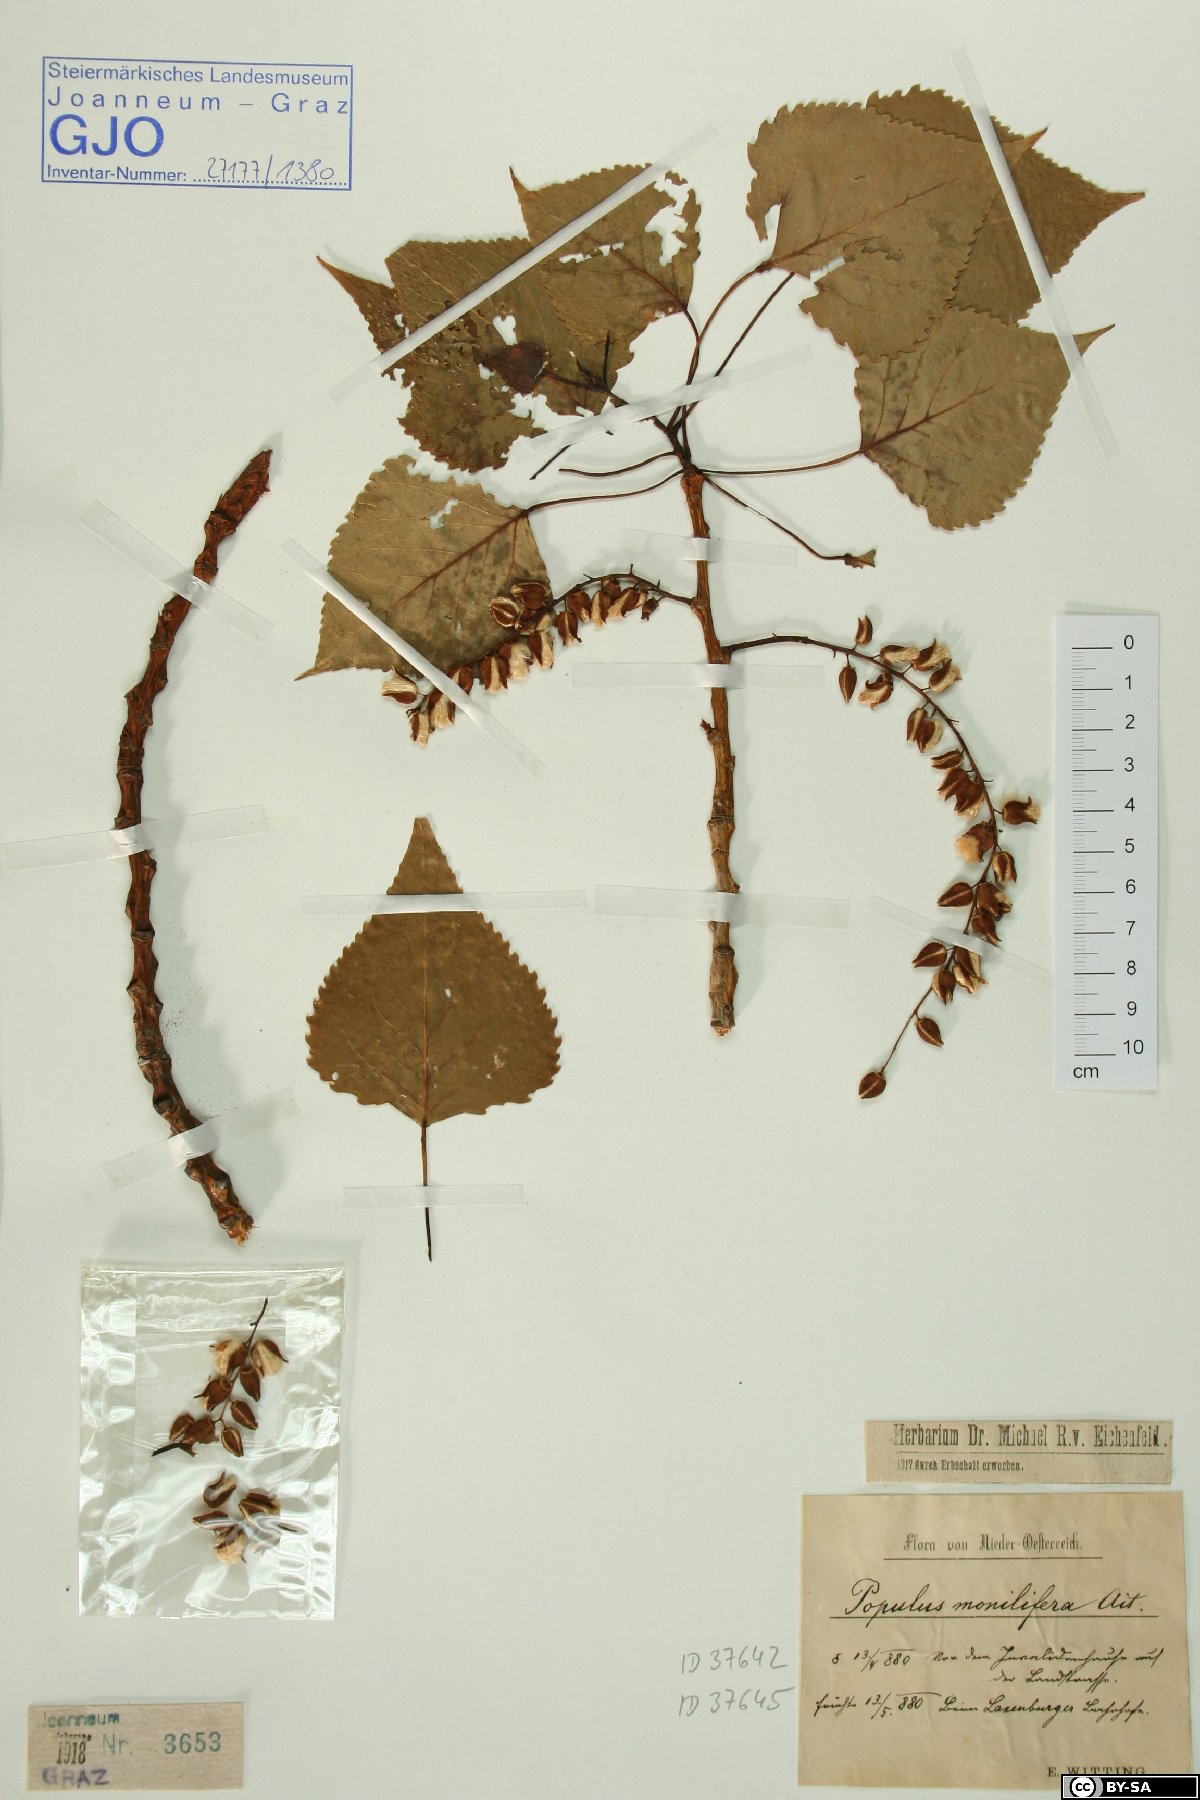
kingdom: Plantae
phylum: Tracheophyta
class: Magnoliopsida
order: Malpighiales
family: Salicaceae
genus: Populus
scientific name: Populus deltoides
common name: Eastern cottonwood
